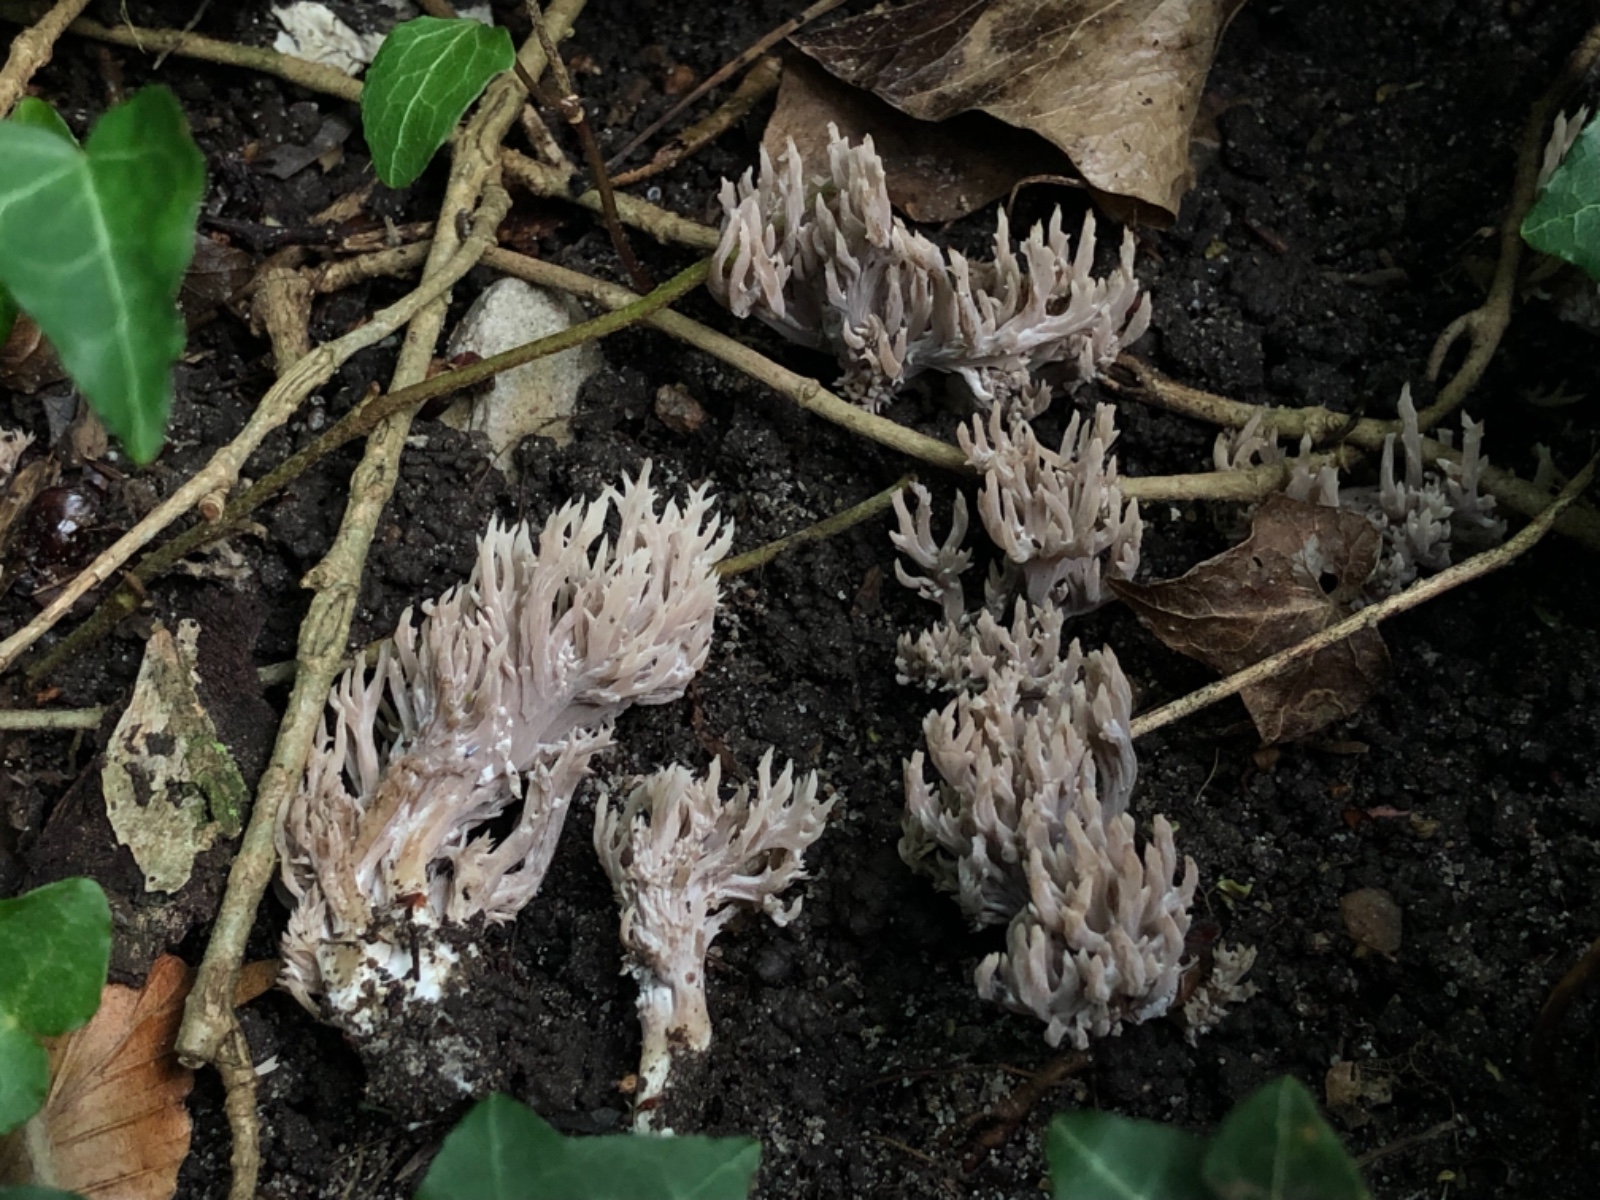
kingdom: Fungi
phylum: Basidiomycota
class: Agaricomycetes
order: Cantharellales
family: Hydnaceae
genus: Clavulina
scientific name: Clavulina
